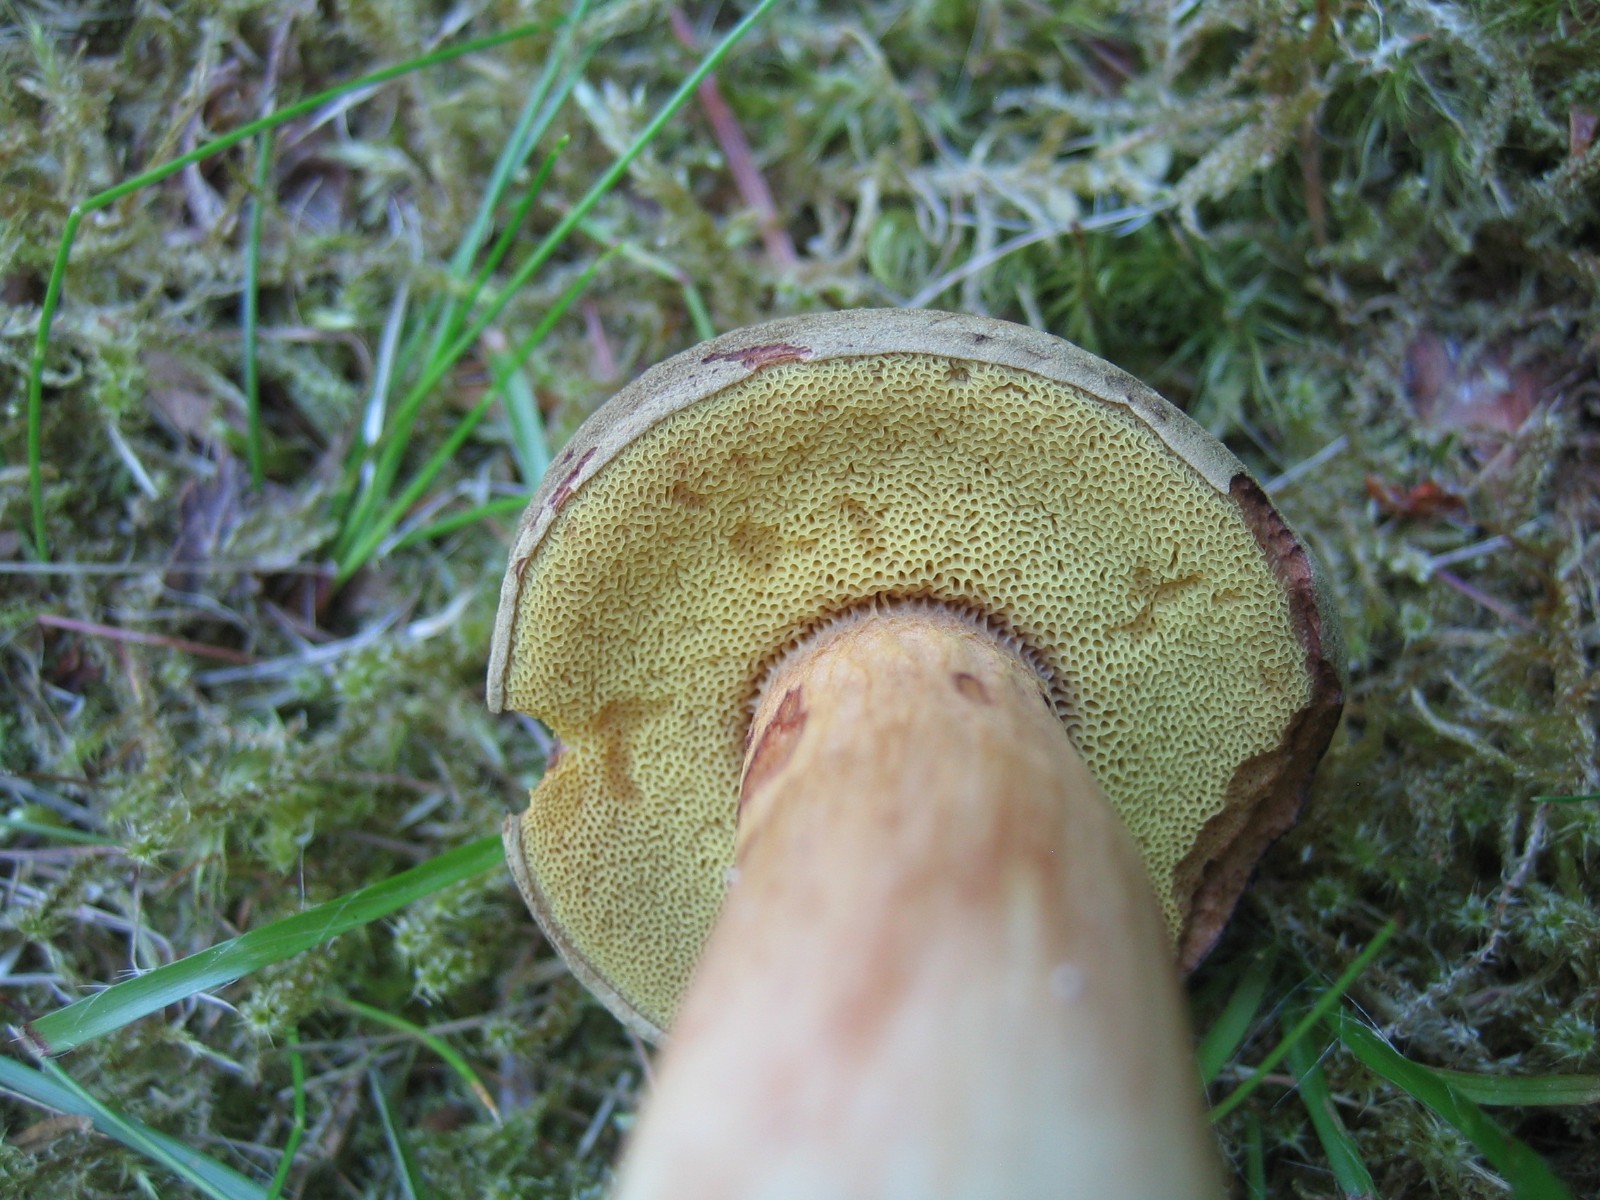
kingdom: Fungi
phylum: Basidiomycota
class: Agaricomycetes
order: Boletales
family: Boletaceae
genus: Xerocomus
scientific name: Xerocomus ferrugineus
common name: vaskeskinds-rørhat
